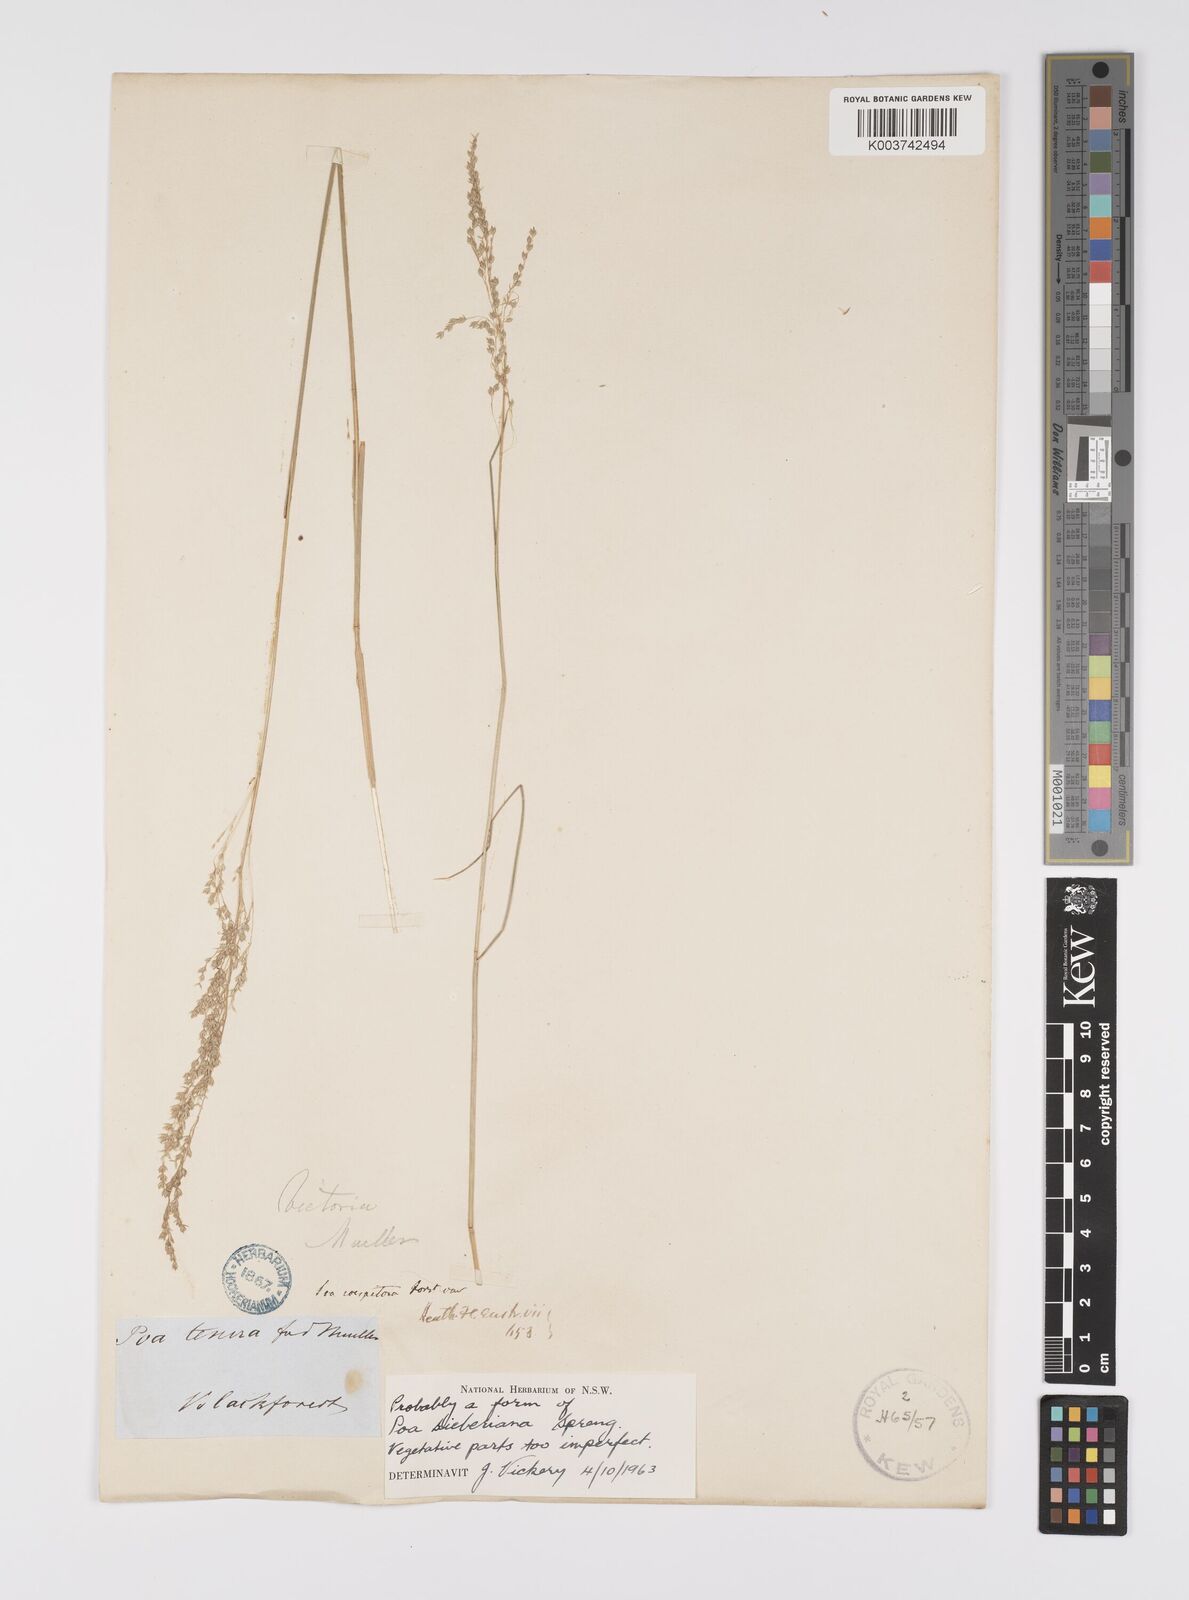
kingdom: Plantae
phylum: Tracheophyta
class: Liliopsida
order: Poales
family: Poaceae
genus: Poa
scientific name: Poa
